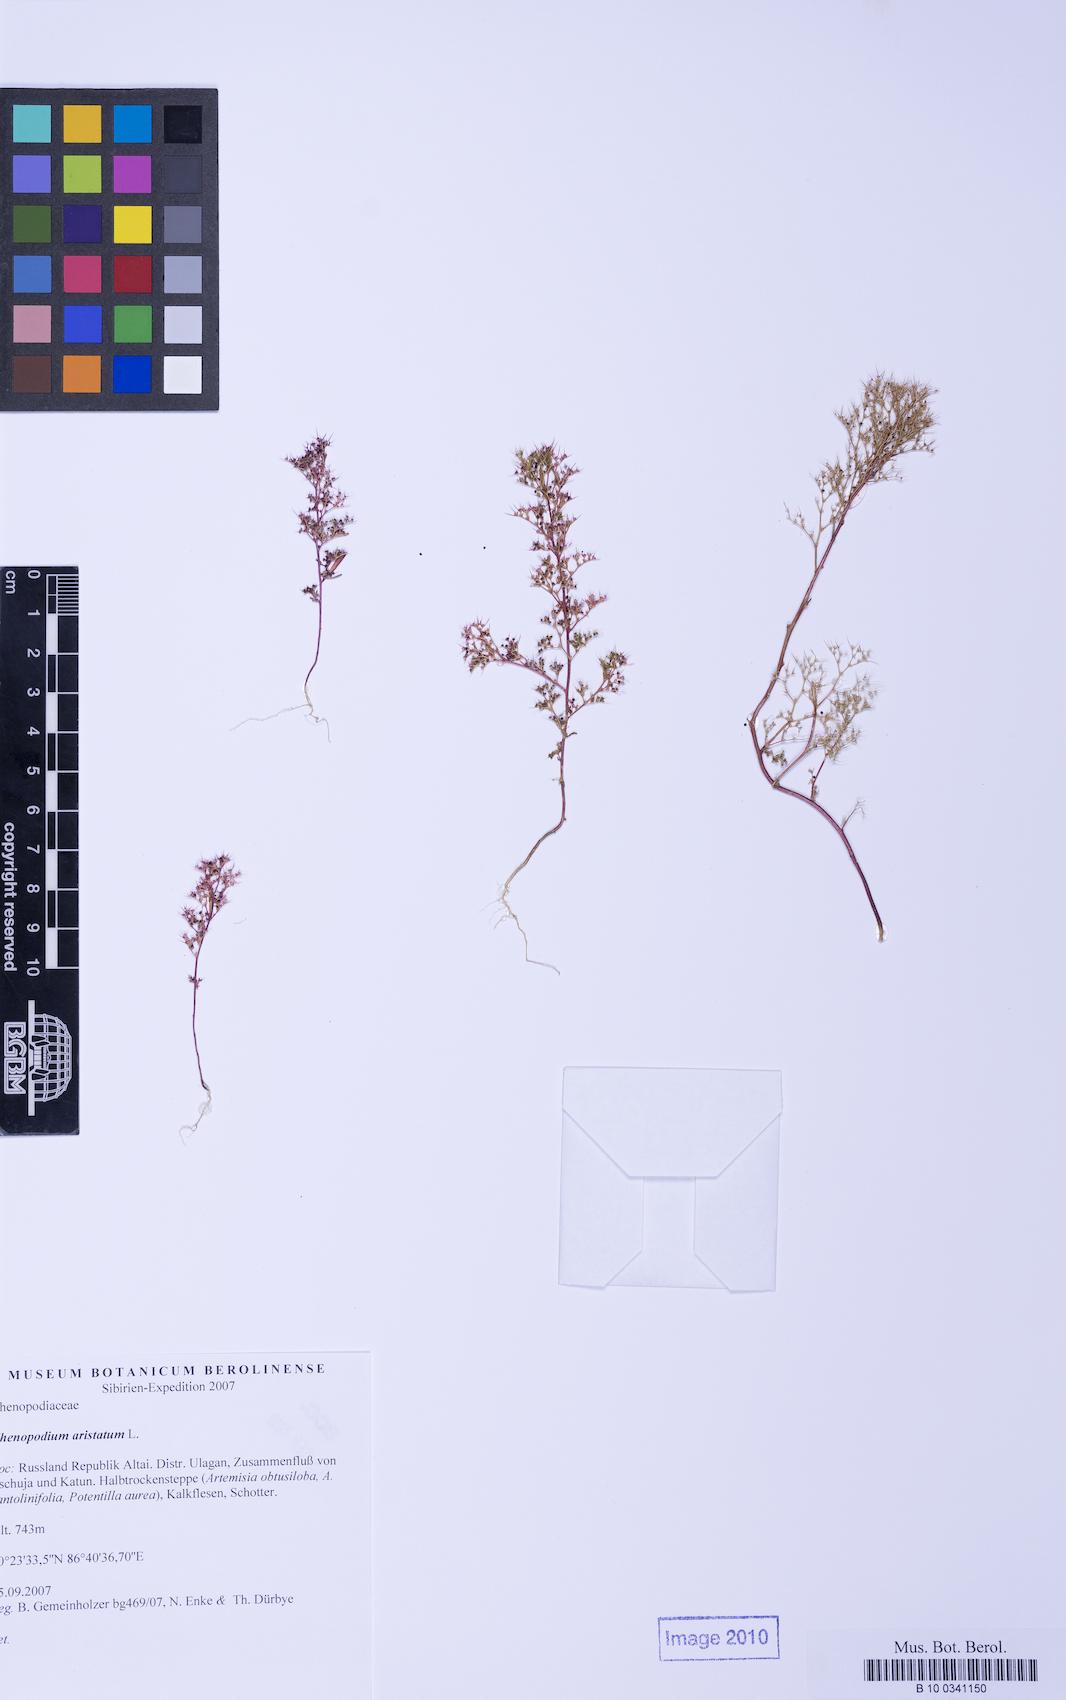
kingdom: Plantae
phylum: Tracheophyta
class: Magnoliopsida
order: Caryophyllales
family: Amaranthaceae
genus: Teloxys
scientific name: Teloxys aristata
